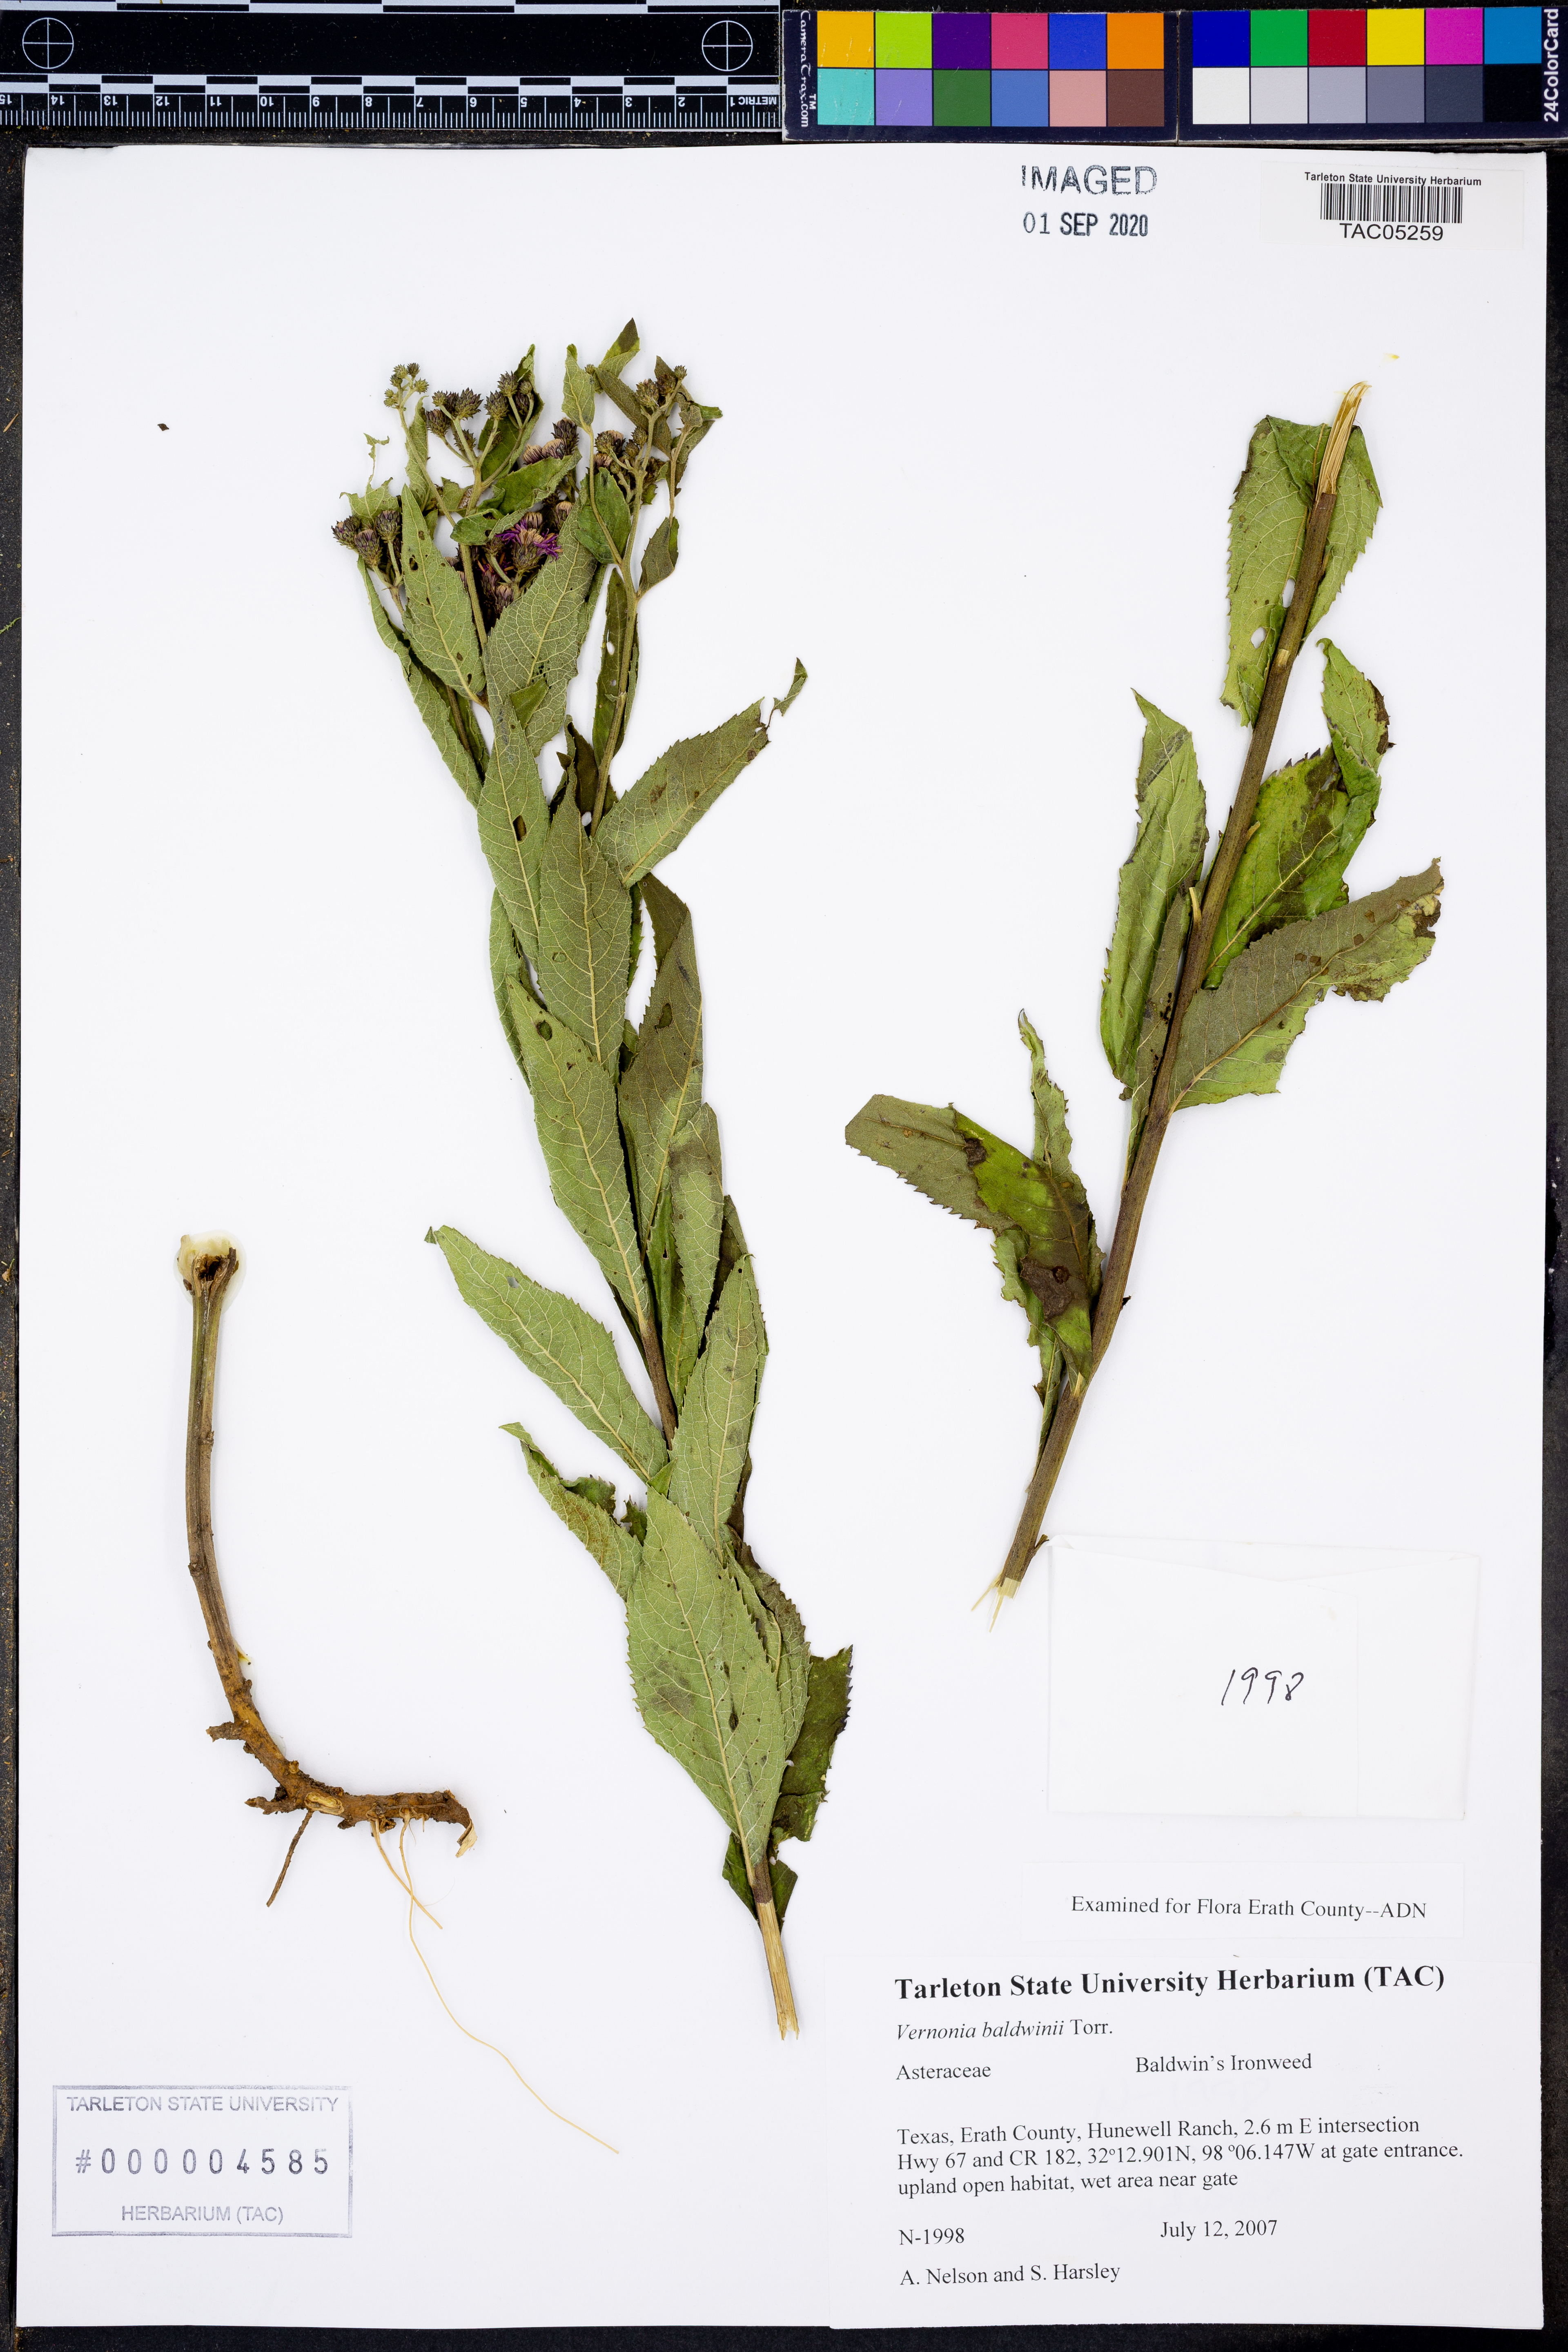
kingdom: Plantae
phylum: Tracheophyta
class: Magnoliopsida
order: Asterales
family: Asteraceae
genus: Vernonia
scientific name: Vernonia baldwinii
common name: Western ironweed
